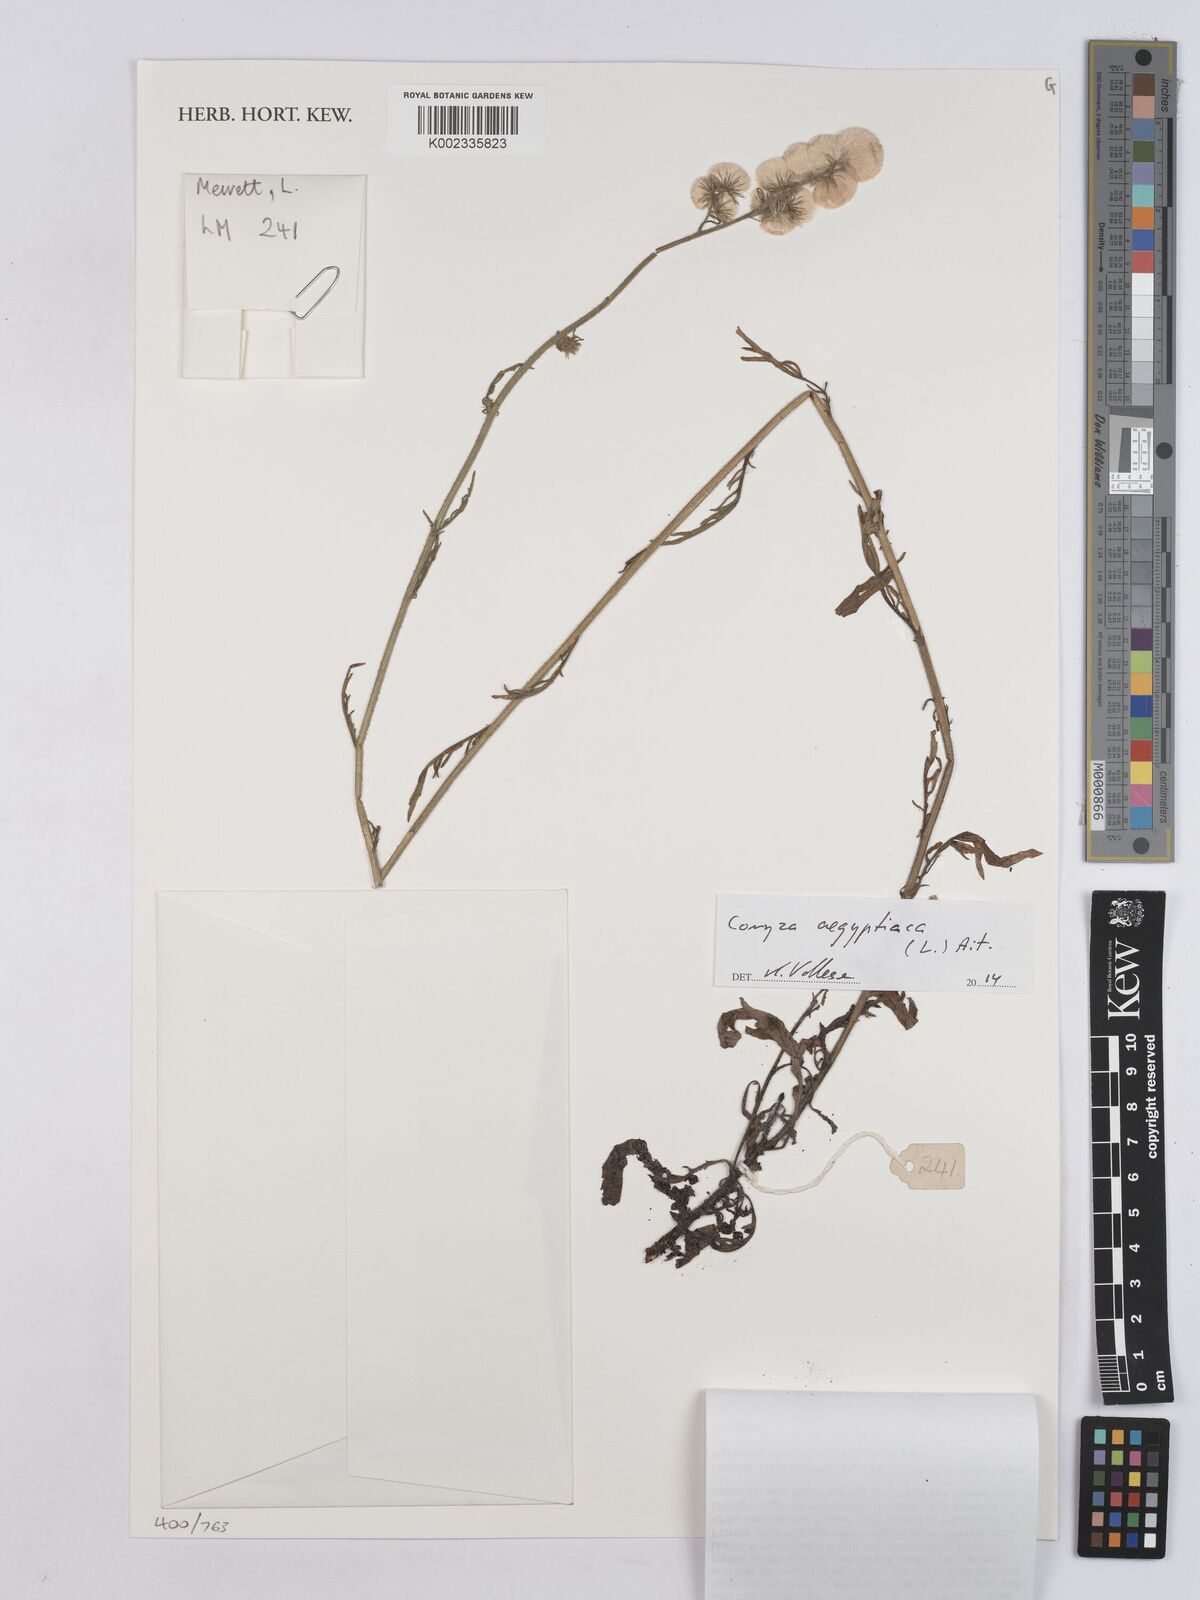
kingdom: Plantae
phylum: Tracheophyta
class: Magnoliopsida
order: Asterales
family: Asteraceae
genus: Nidorella
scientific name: Nidorella aegyptiaca
